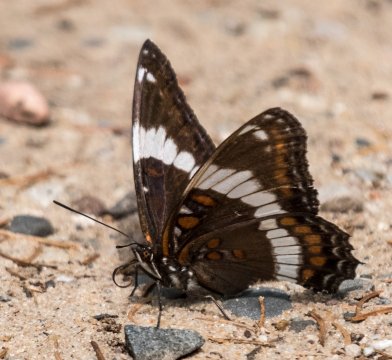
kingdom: Animalia
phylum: Arthropoda
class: Insecta
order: Lepidoptera
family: Nymphalidae
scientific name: Nymphalidae
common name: White Admiral
